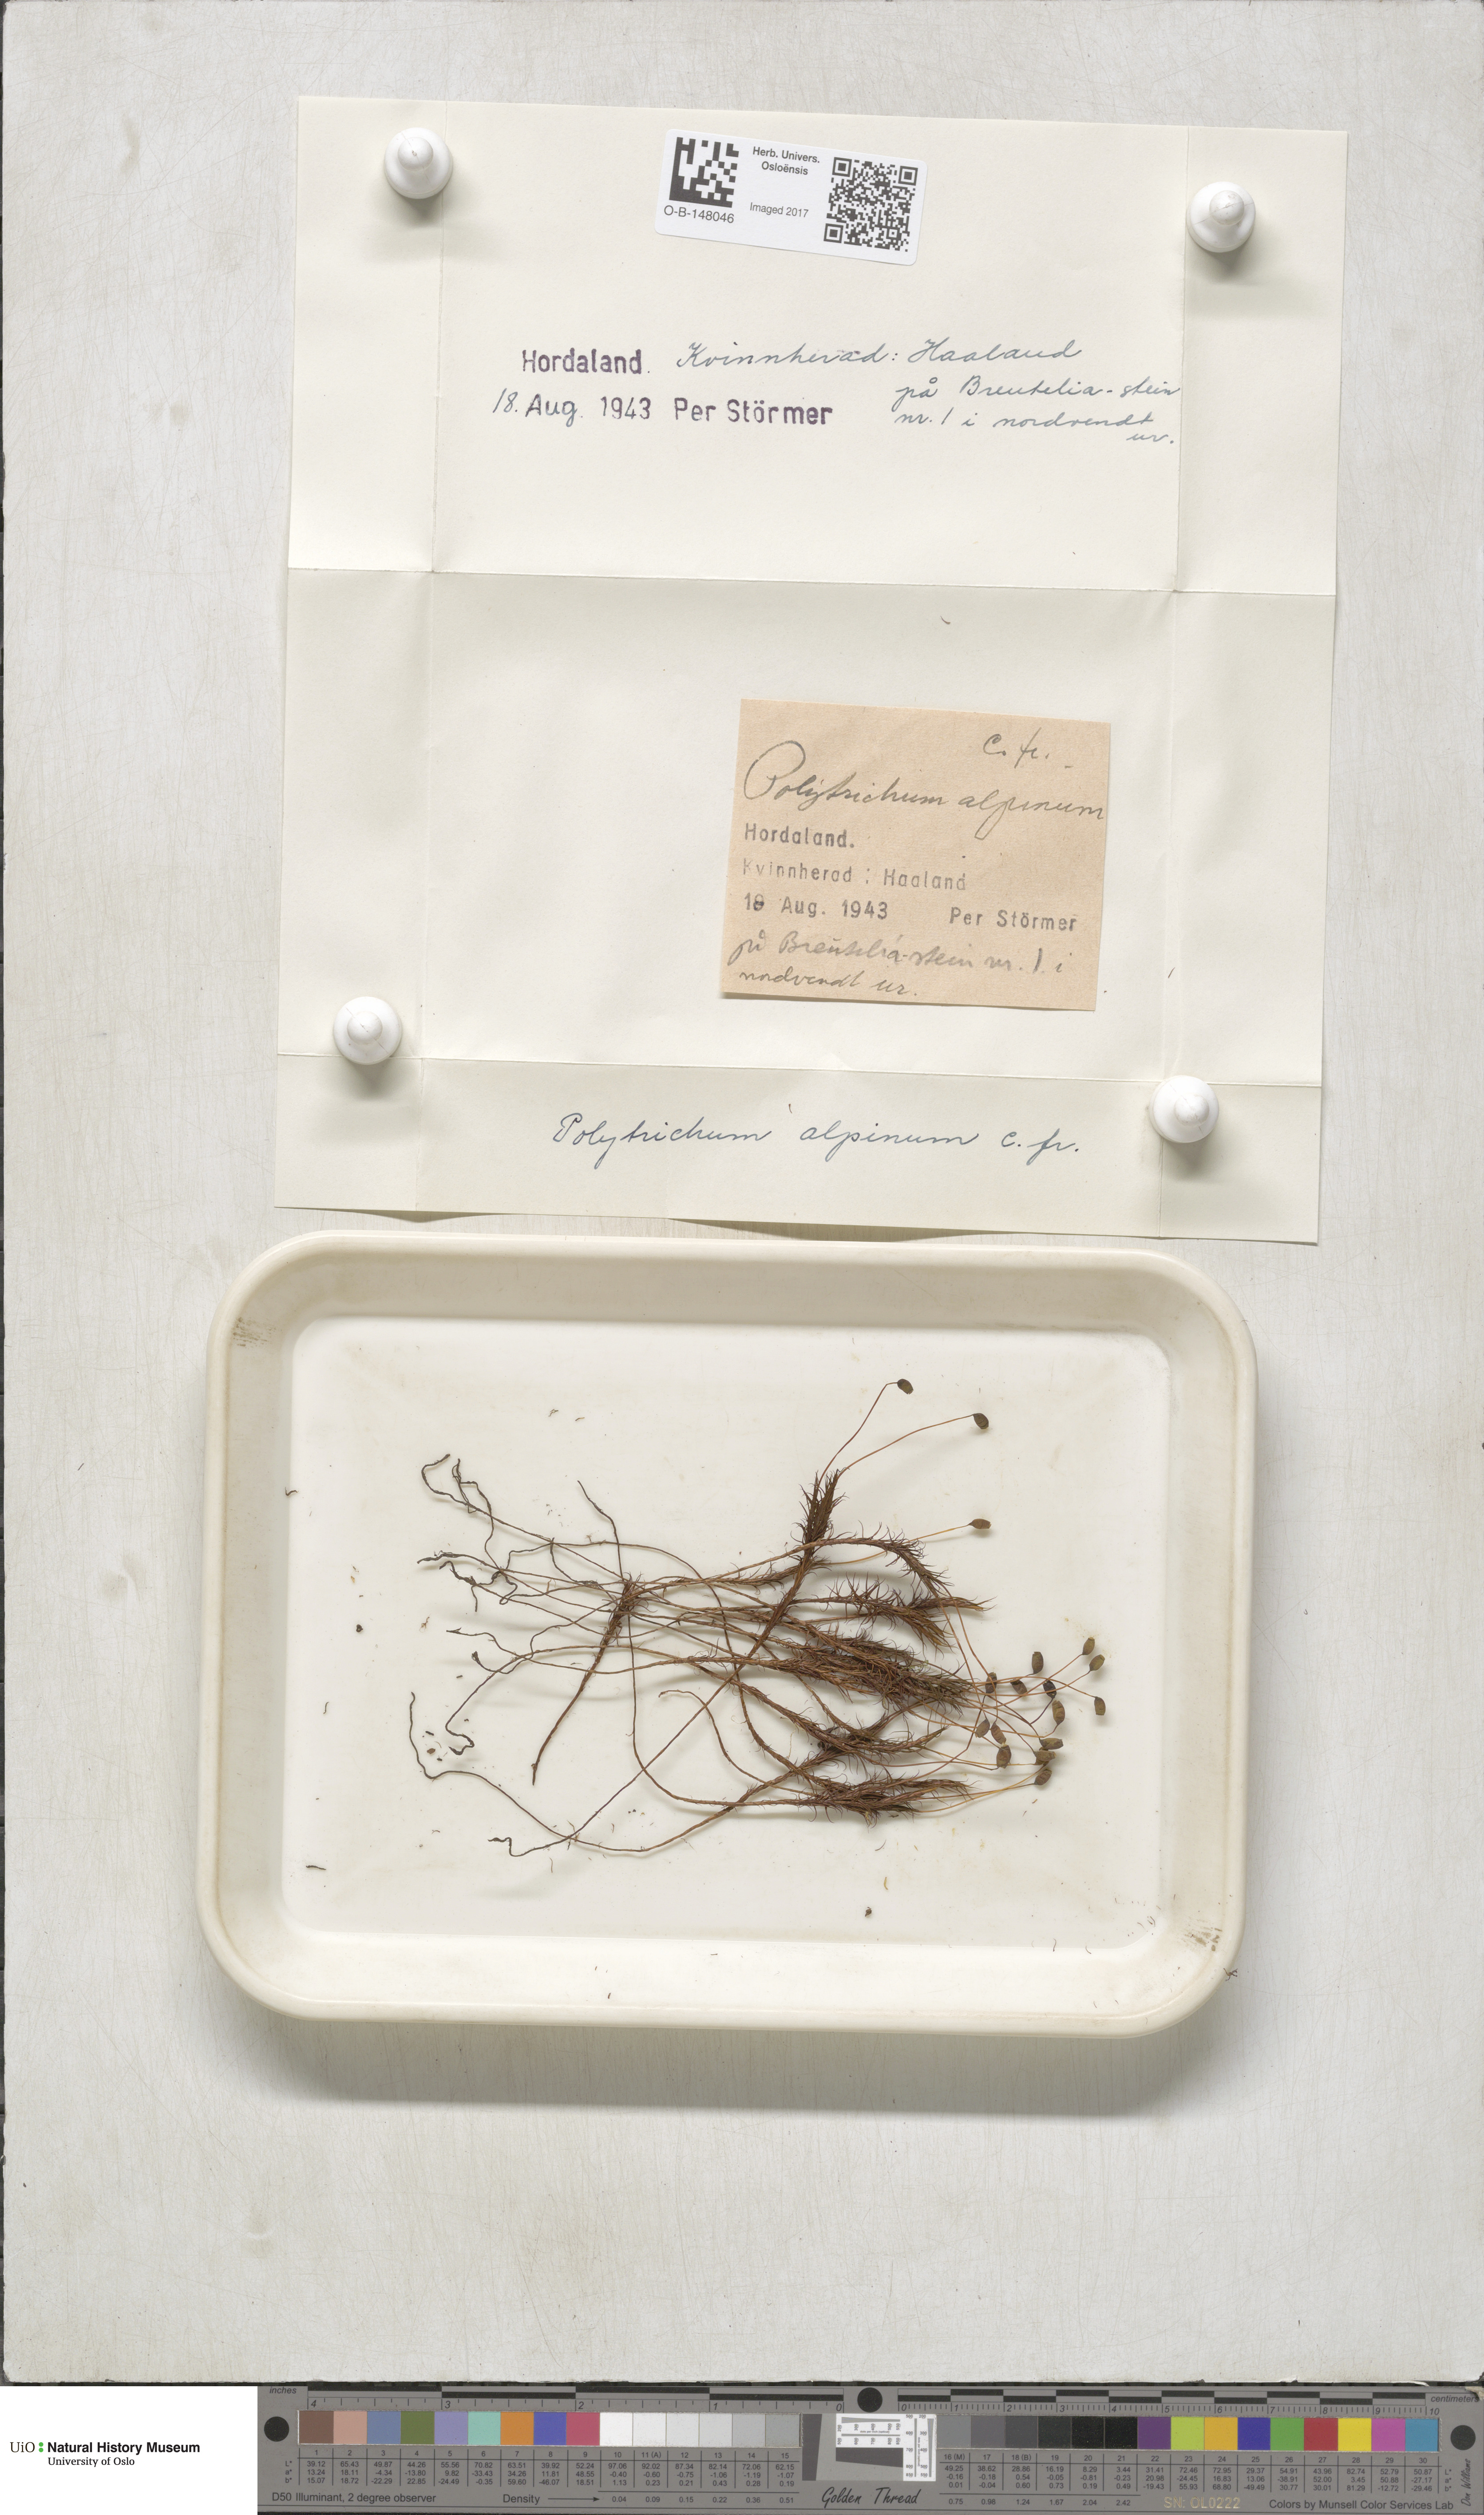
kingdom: Plantae
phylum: Bryophyta
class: Polytrichopsida
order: Polytrichales
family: Polytrichaceae
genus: Polytrichastrum
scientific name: Polytrichastrum alpinum
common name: Alpine haircap
